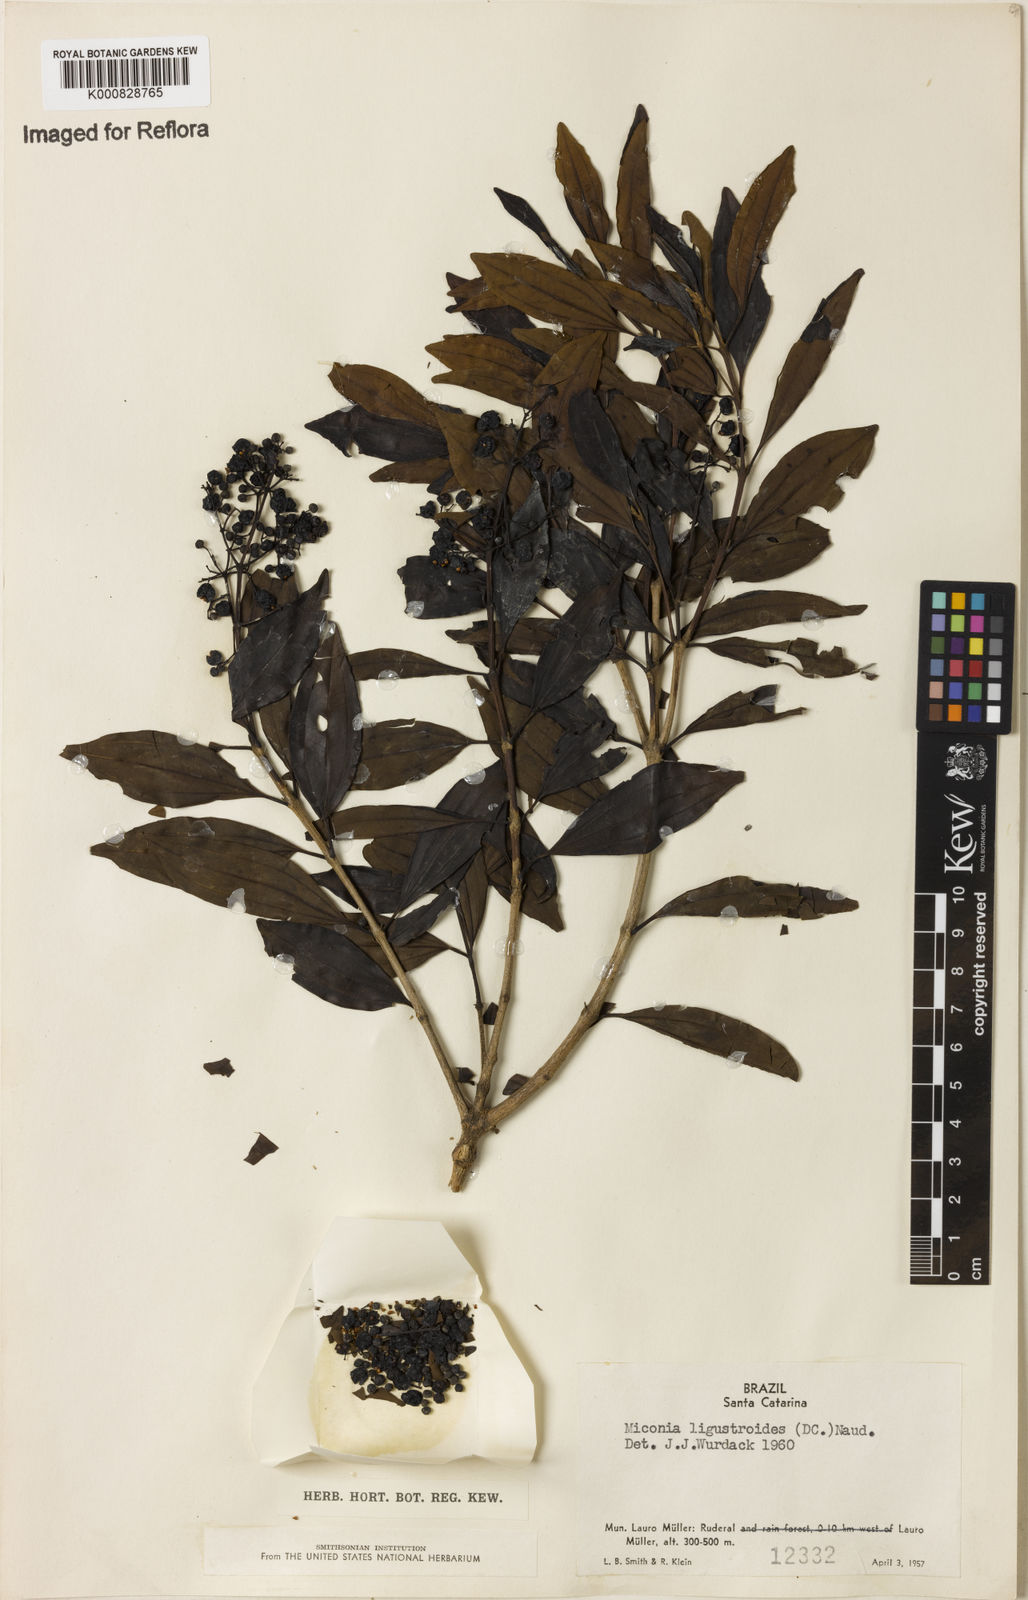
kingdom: Plantae
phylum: Tracheophyta
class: Magnoliopsida
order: Myrtales
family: Melastomataceae
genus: Miconia
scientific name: Miconia ligustroides
